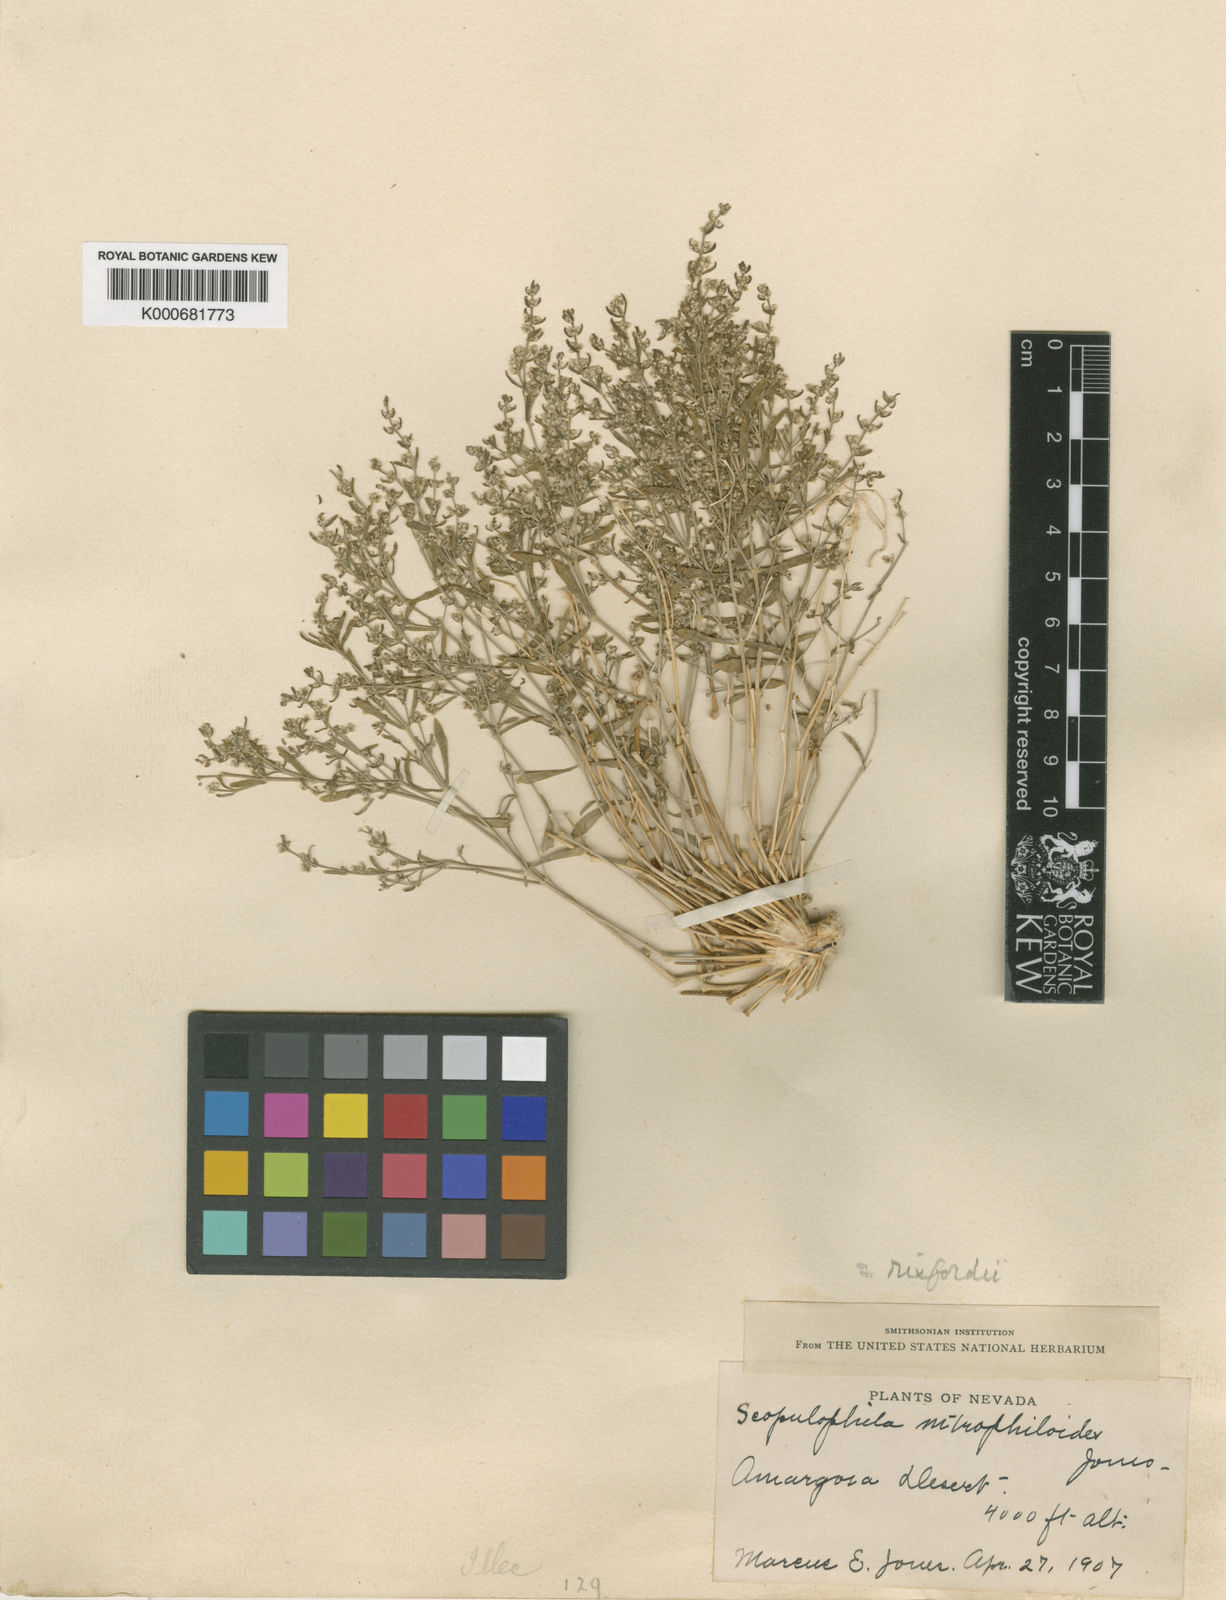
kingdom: Plantae
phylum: Tracheophyta
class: Magnoliopsida
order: Caryophyllales
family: Caryophyllaceae
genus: Scopulophila
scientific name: Scopulophila rixfordii
